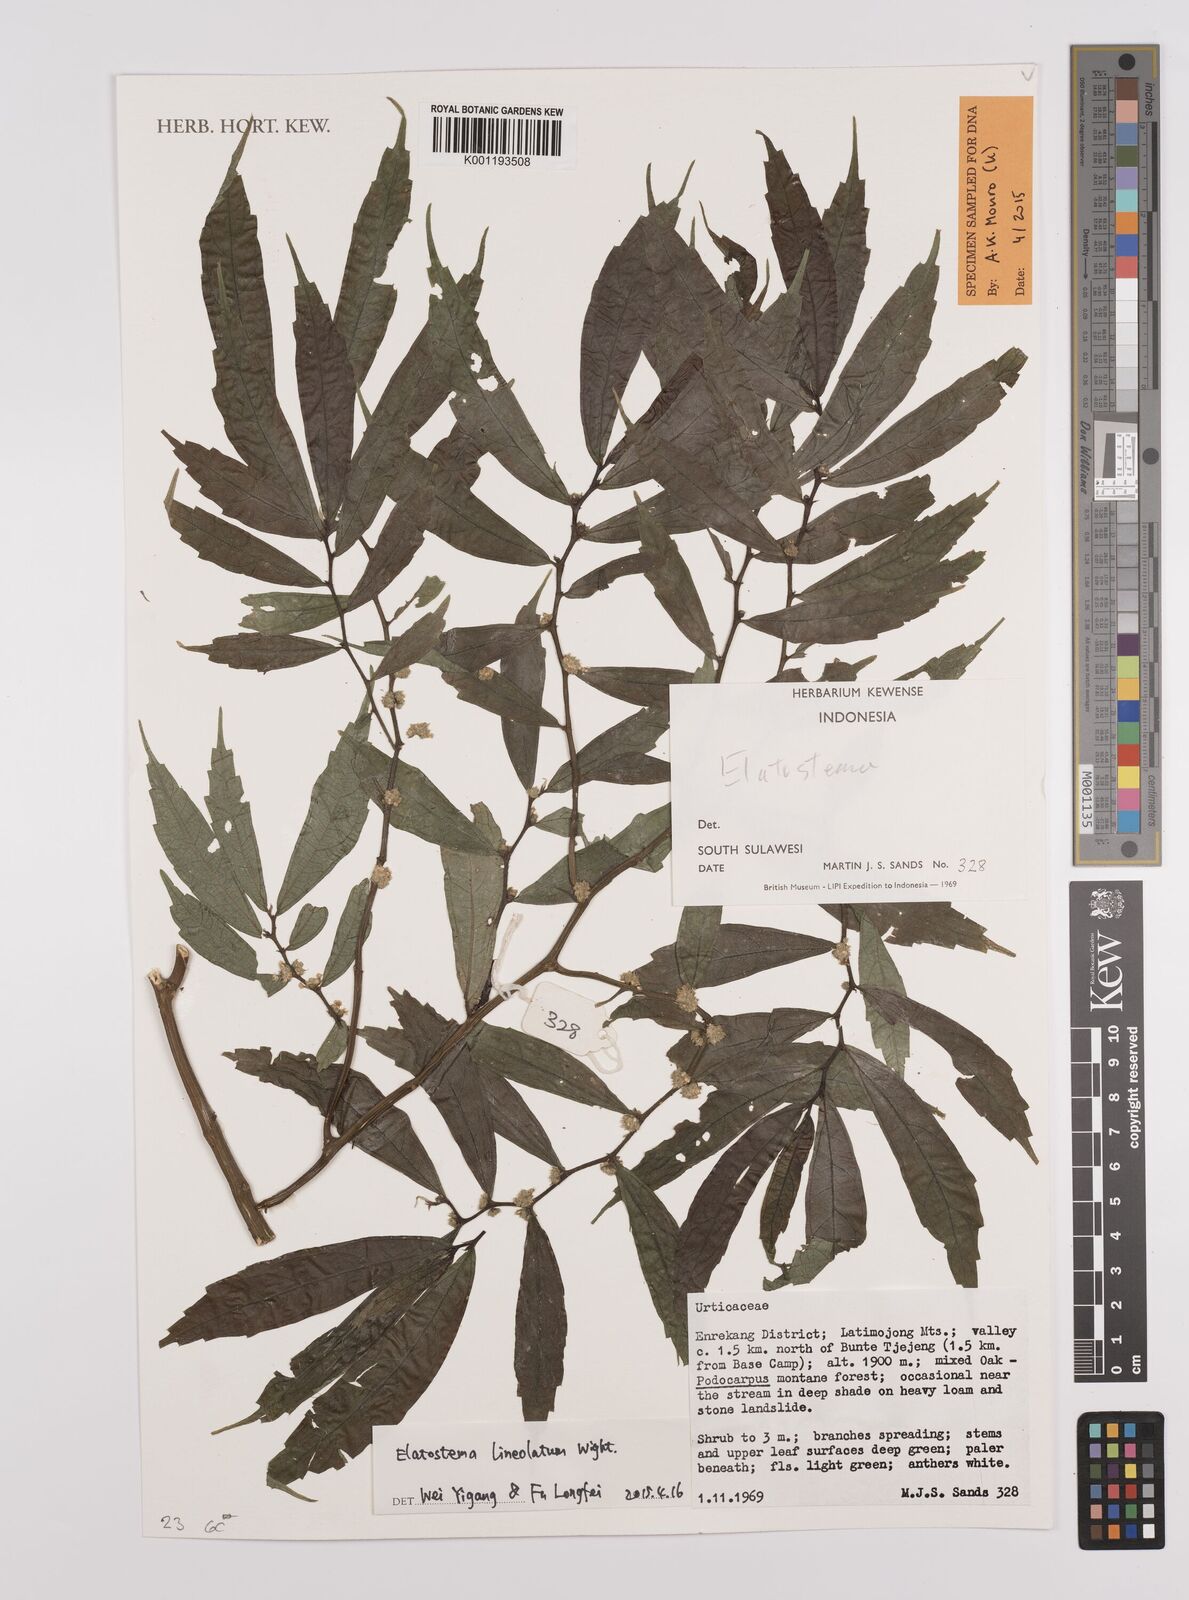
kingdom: Plantae
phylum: Tracheophyta
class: Magnoliopsida
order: Rosales
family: Urticaceae
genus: Elatostema
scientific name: Elatostema lineolatum
